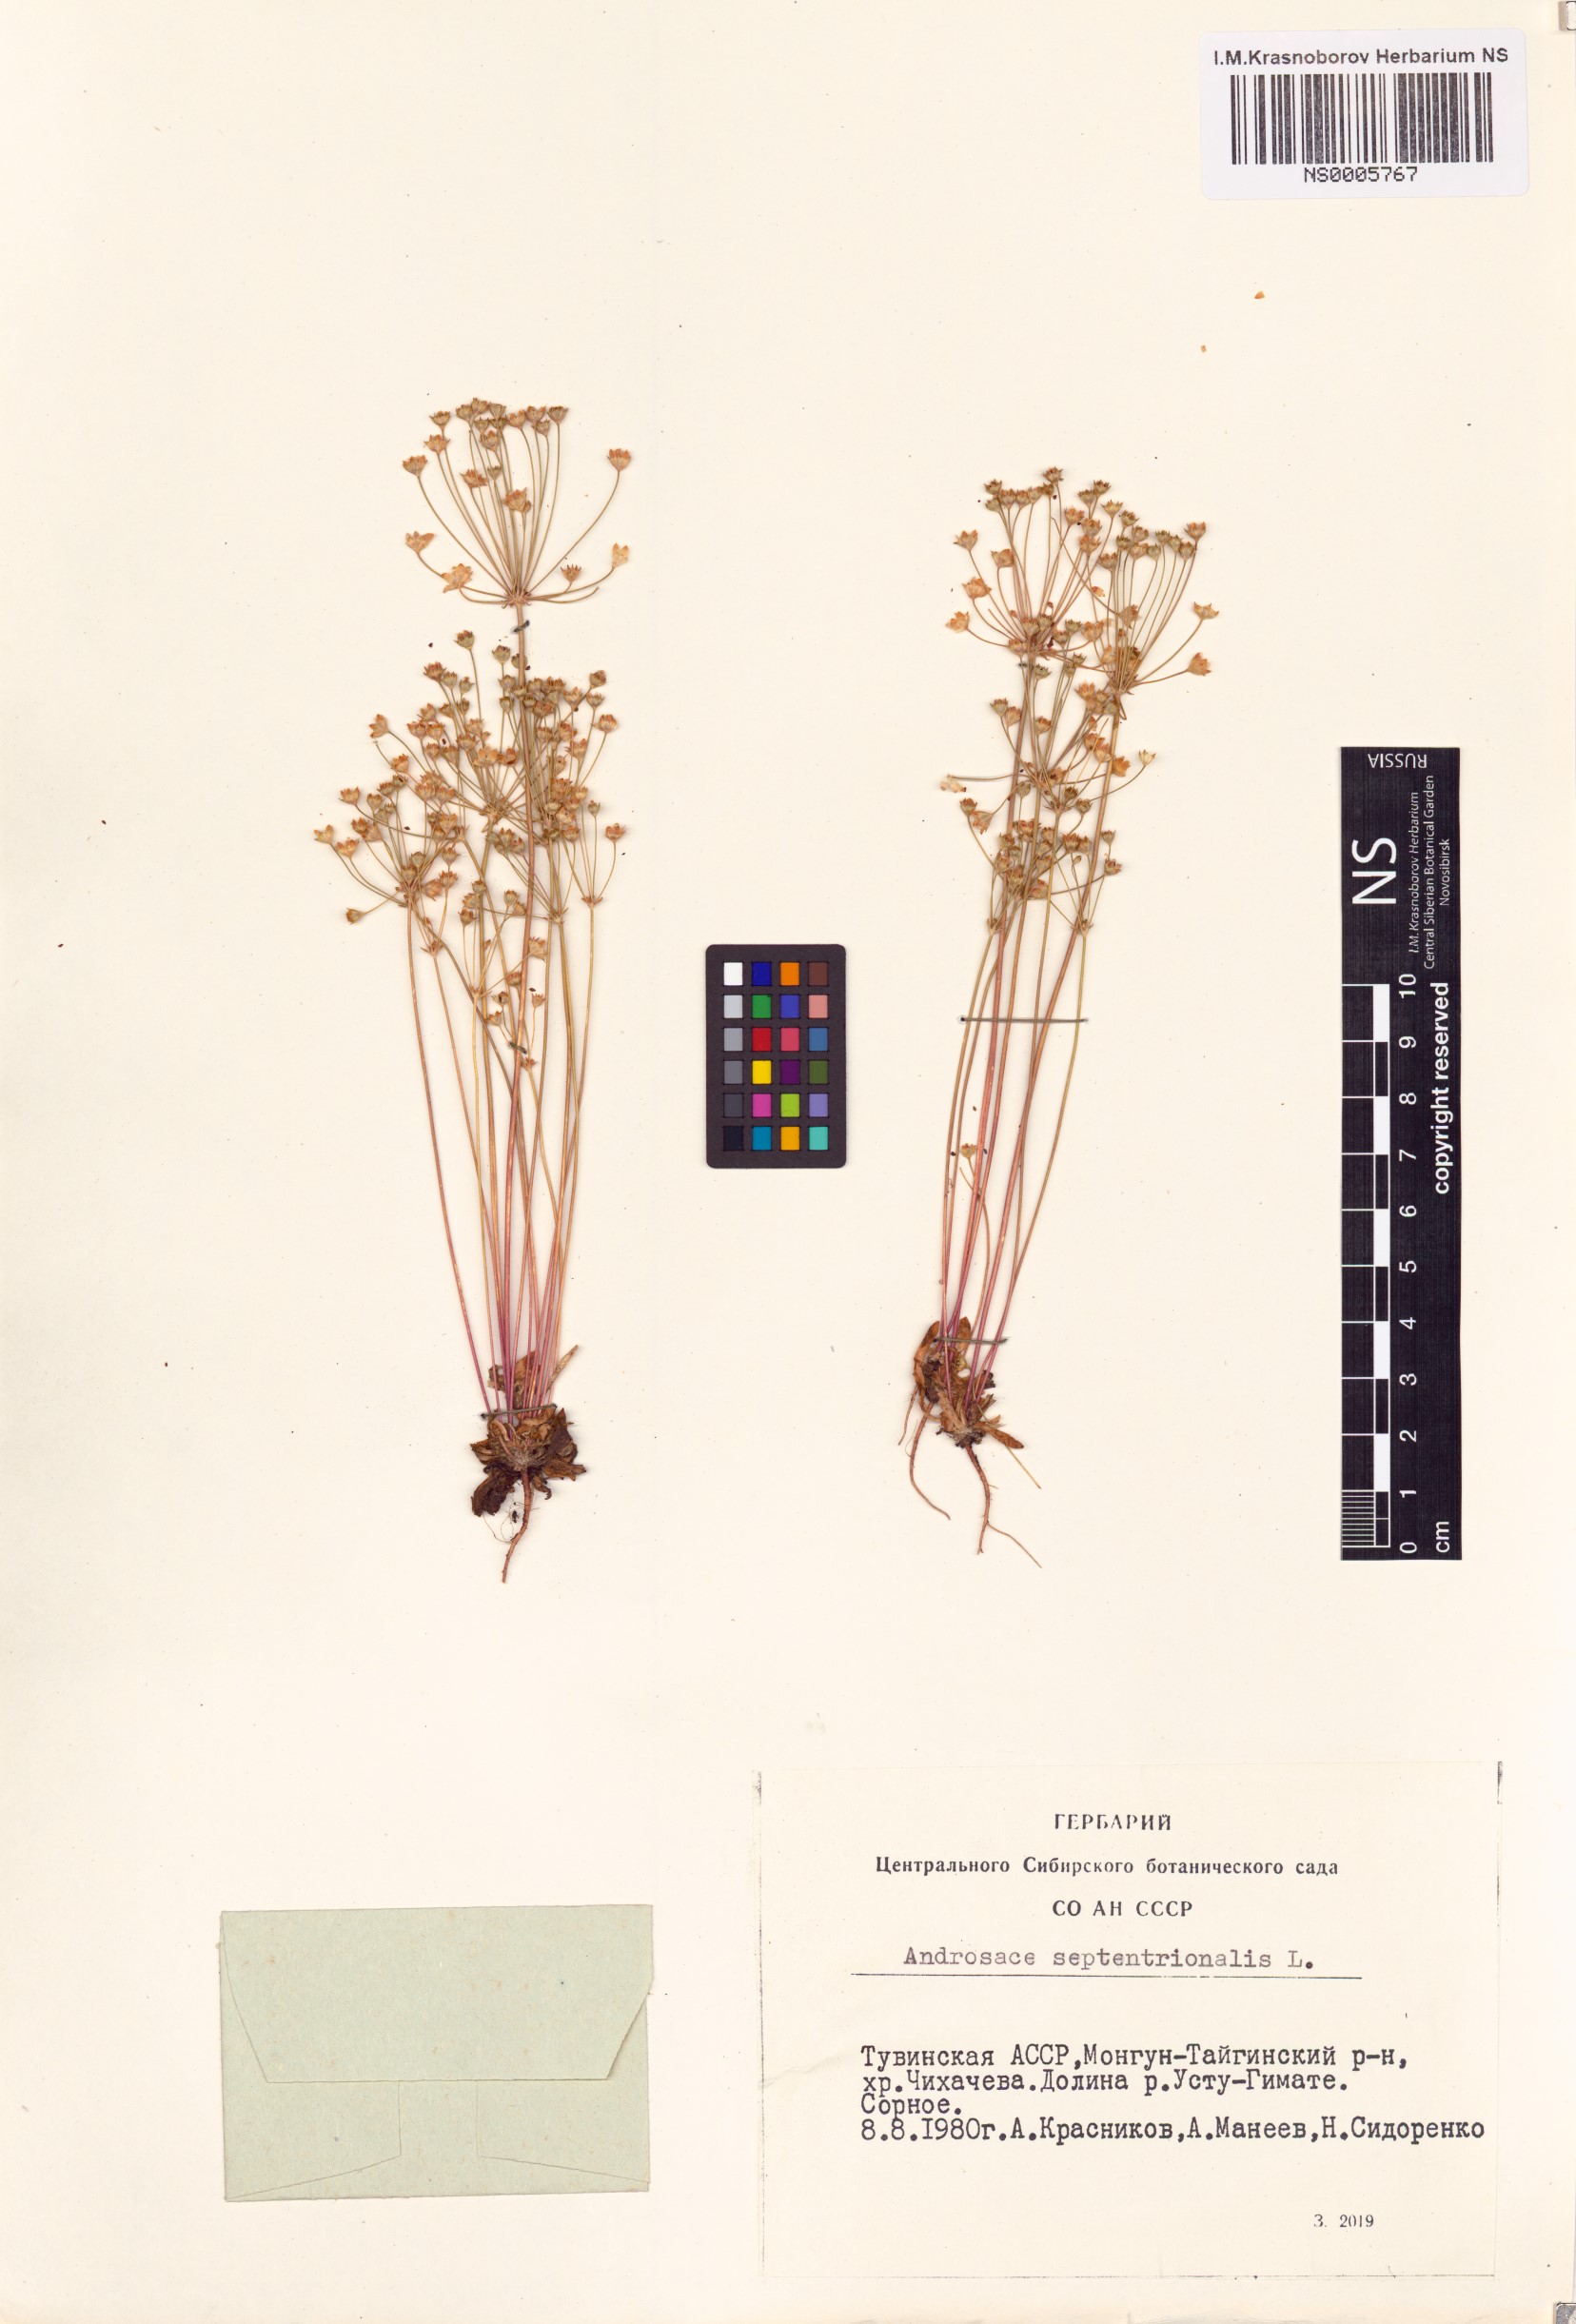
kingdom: Plantae
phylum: Tracheophyta
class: Magnoliopsida
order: Ericales
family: Primulaceae
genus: Androsace
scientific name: Androsace septentrionalis
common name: Hairy northern fairy-candelabra
